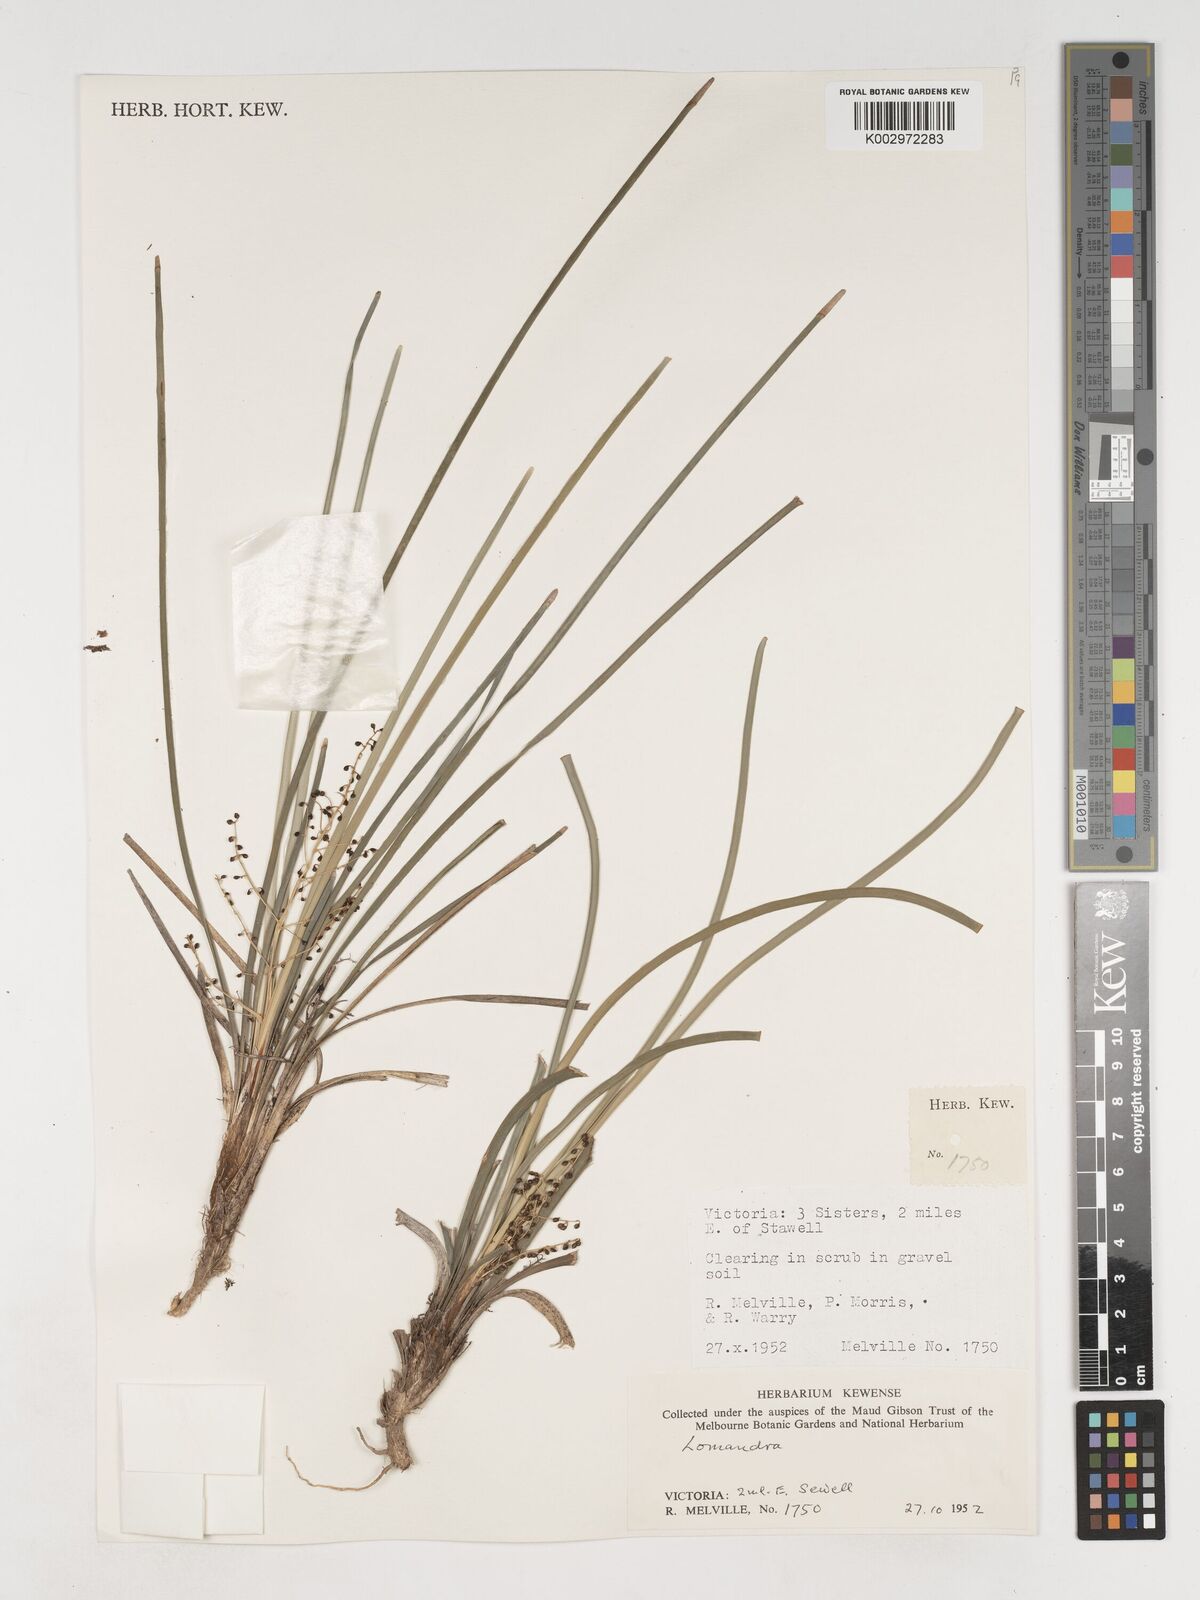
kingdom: Plantae
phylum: Tracheophyta
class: Liliopsida
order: Asparagales
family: Asparagaceae
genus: Lomandra
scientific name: Lomandra
